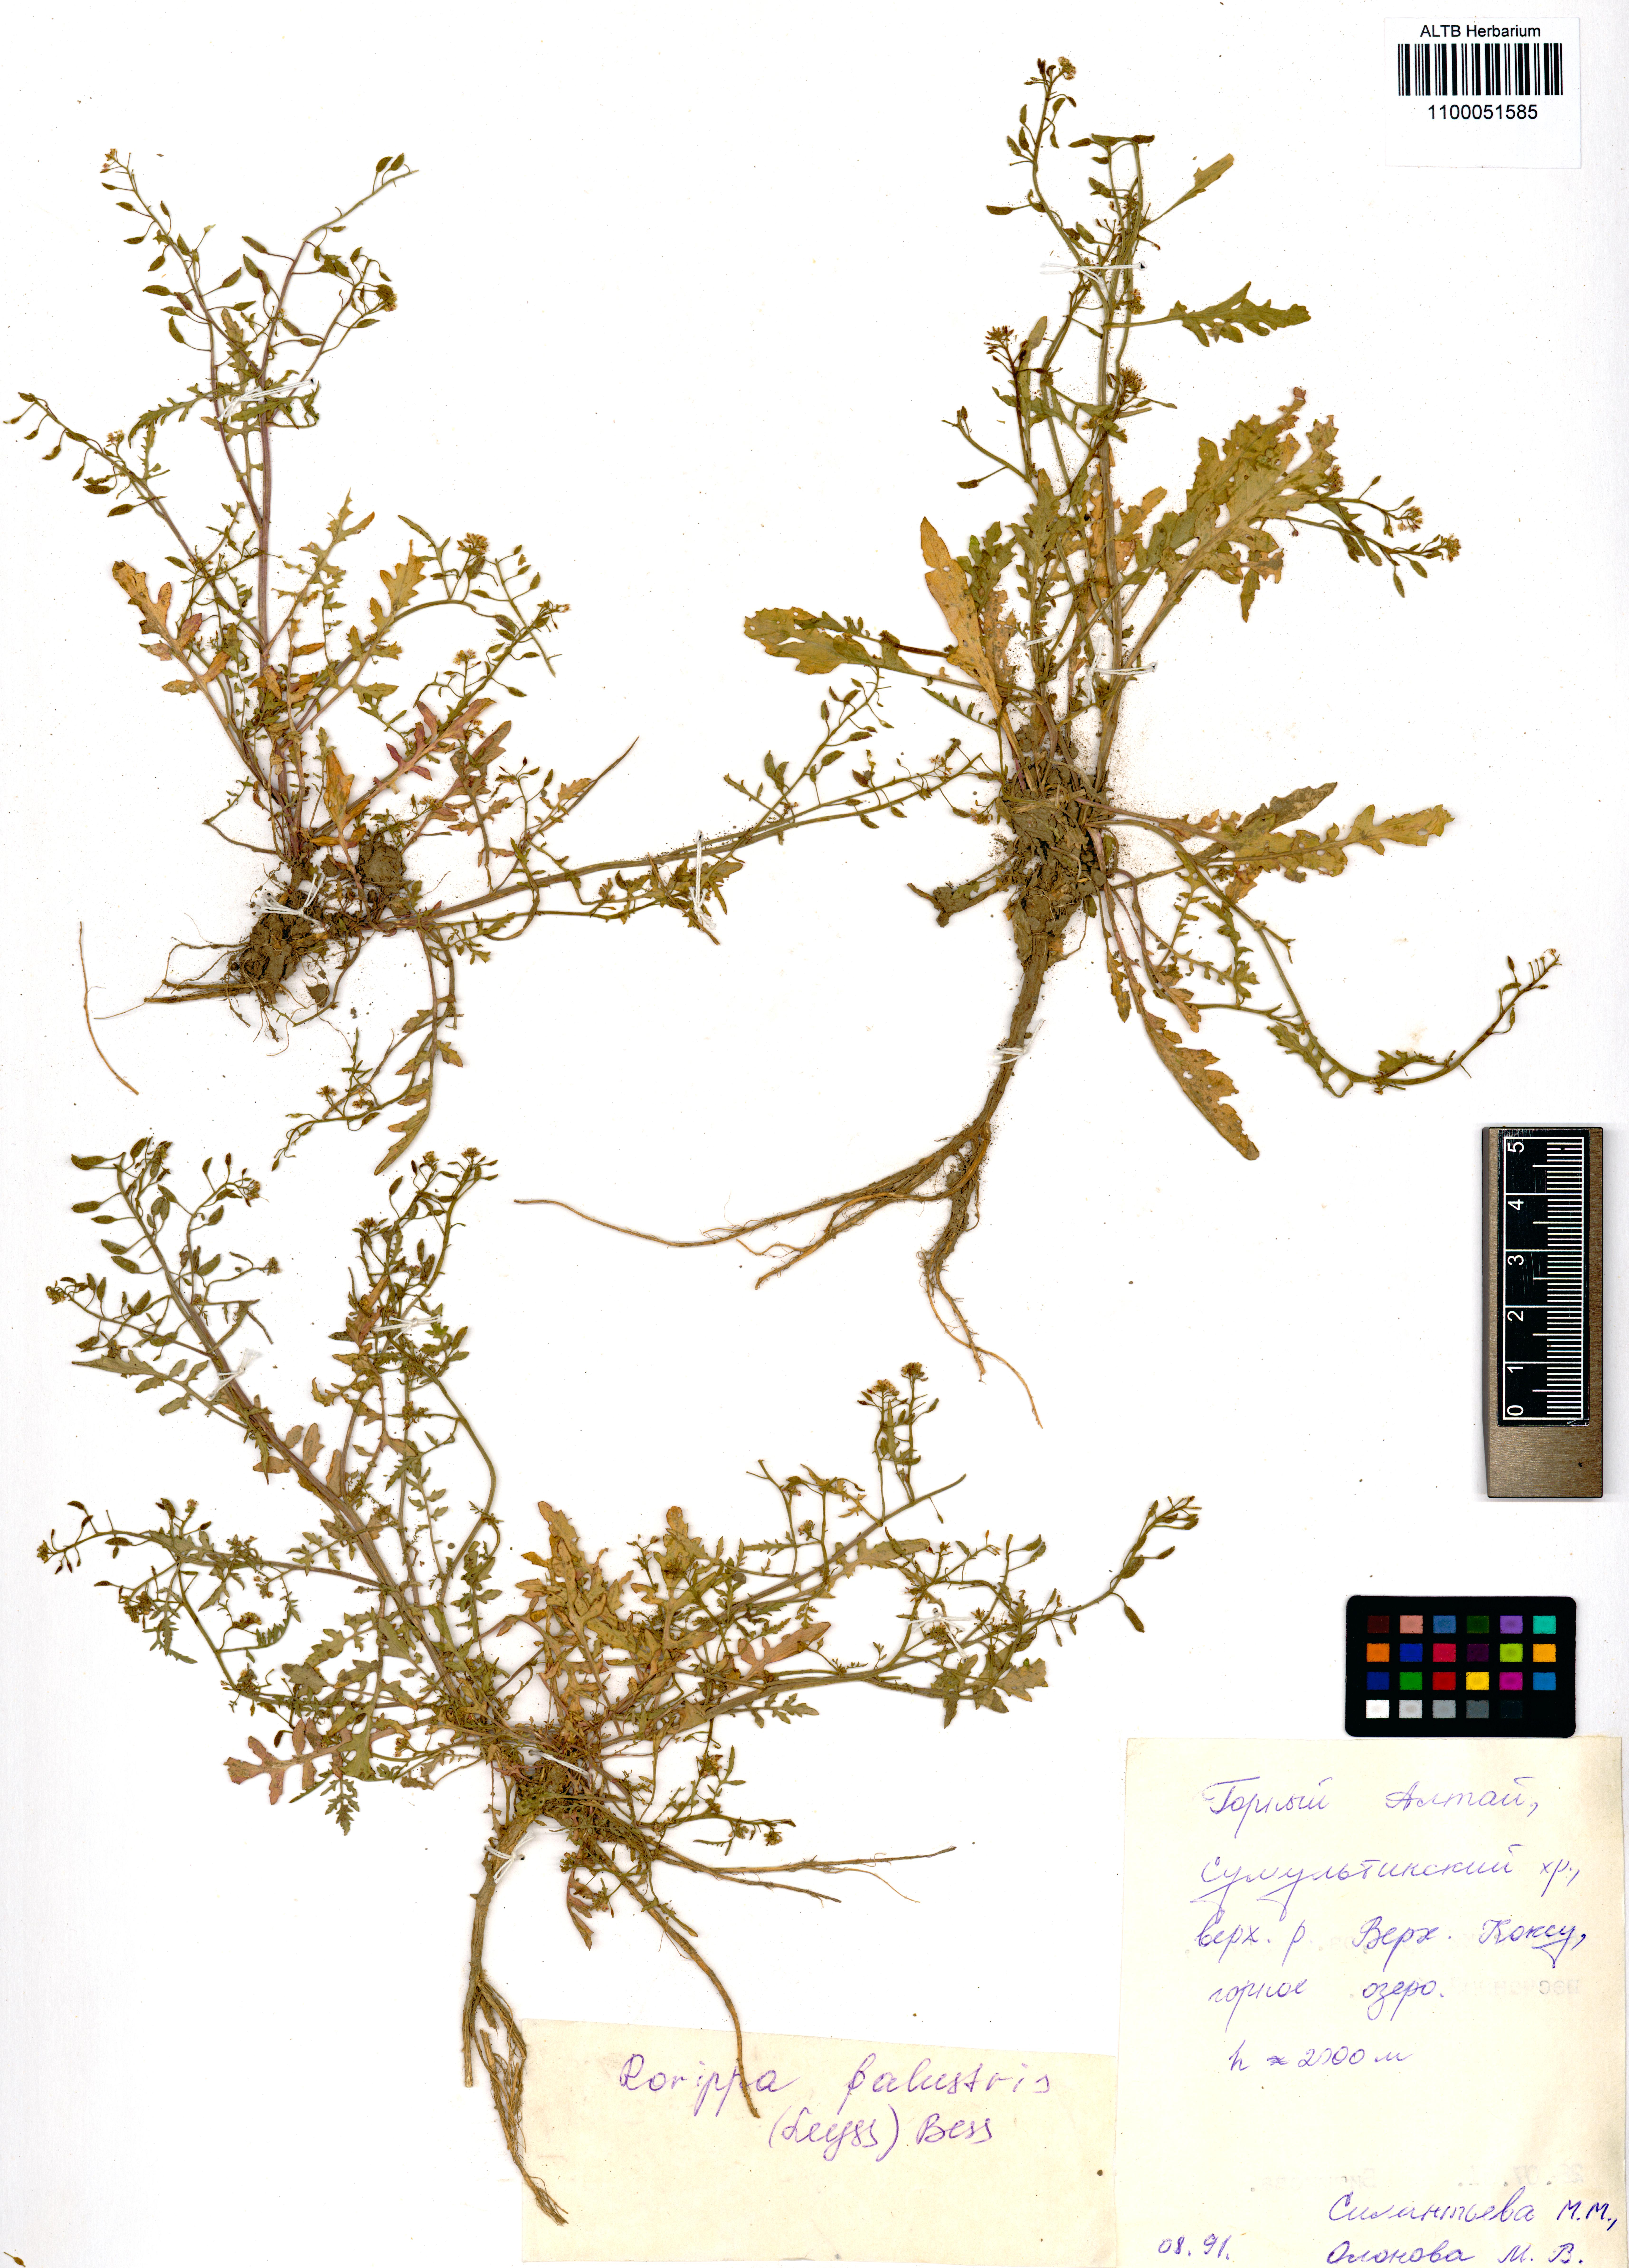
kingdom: Plantae
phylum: Tracheophyta
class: Magnoliopsida
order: Brassicales
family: Brassicaceae
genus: Rorippa
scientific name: Rorippa palustris
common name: Marsh yellow-cress
